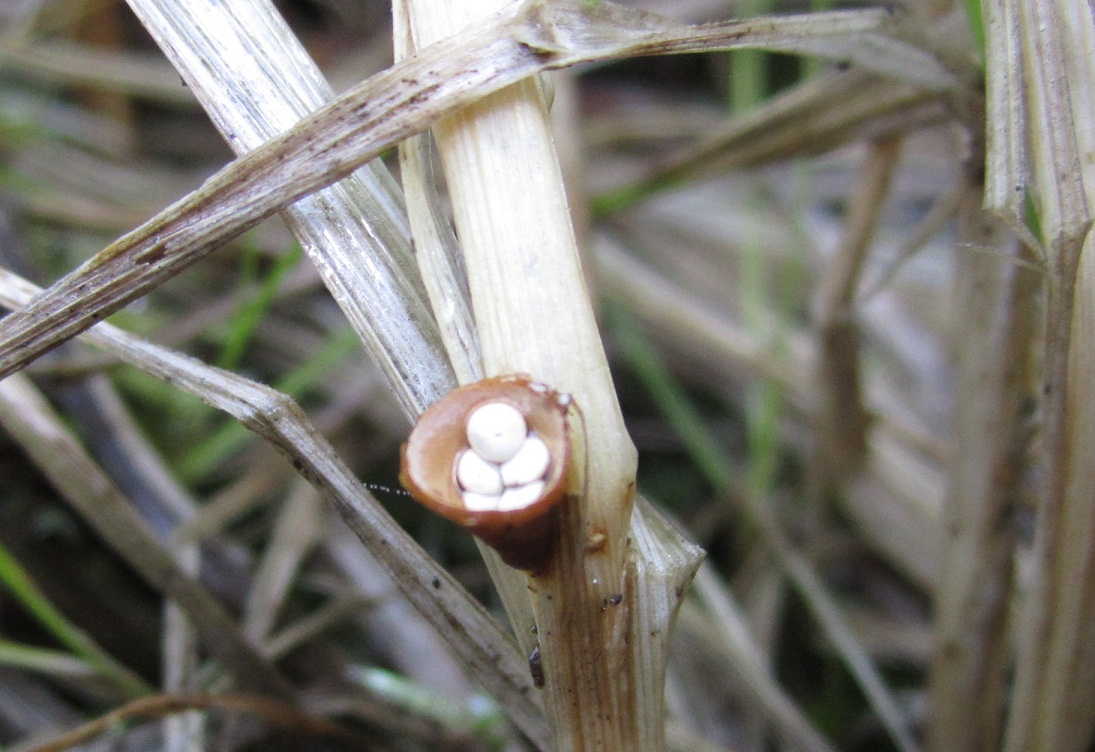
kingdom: Fungi
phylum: Basidiomycota
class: Agaricomycetes
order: Agaricales
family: Nidulariaceae
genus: Crucibulum
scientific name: Crucibulum crucibuliforme
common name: krukkesvamp
